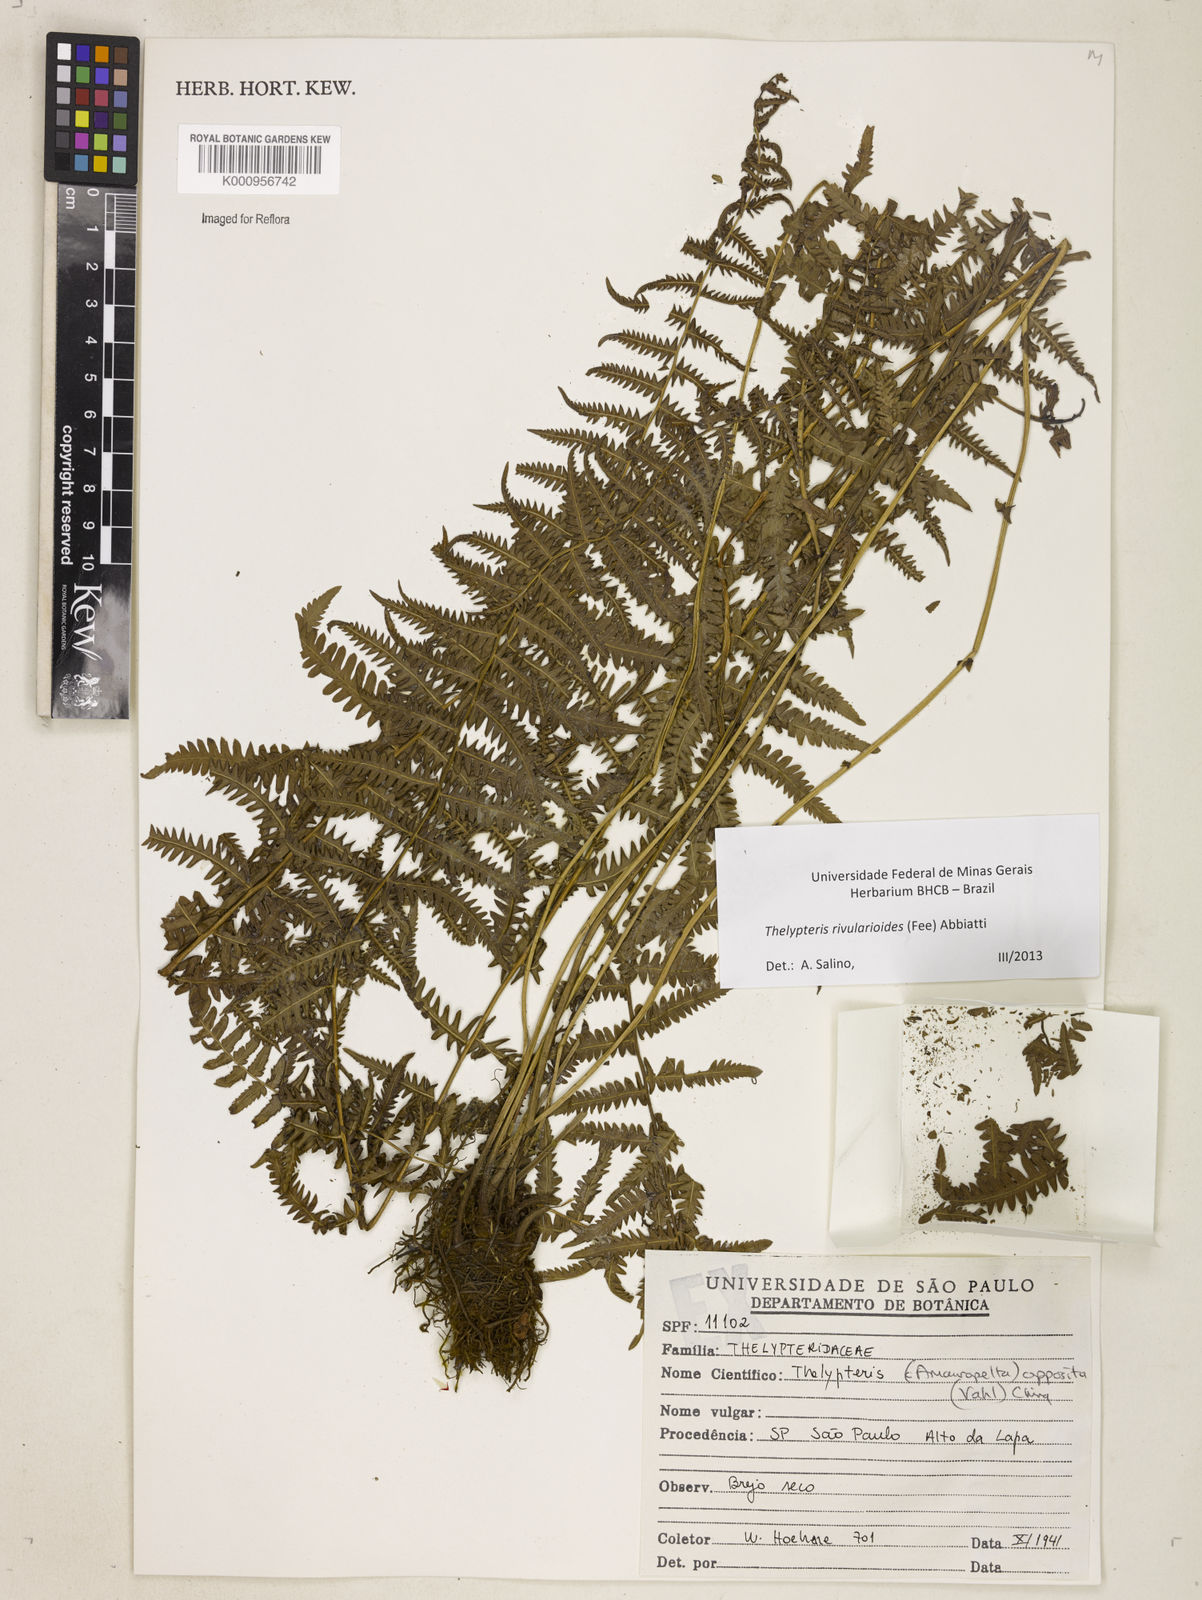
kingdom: Plantae
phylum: Tracheophyta
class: Polypodiopsida
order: Polypodiales
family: Thelypteridaceae
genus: Amauropelta
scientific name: Amauropelta rivularioides
